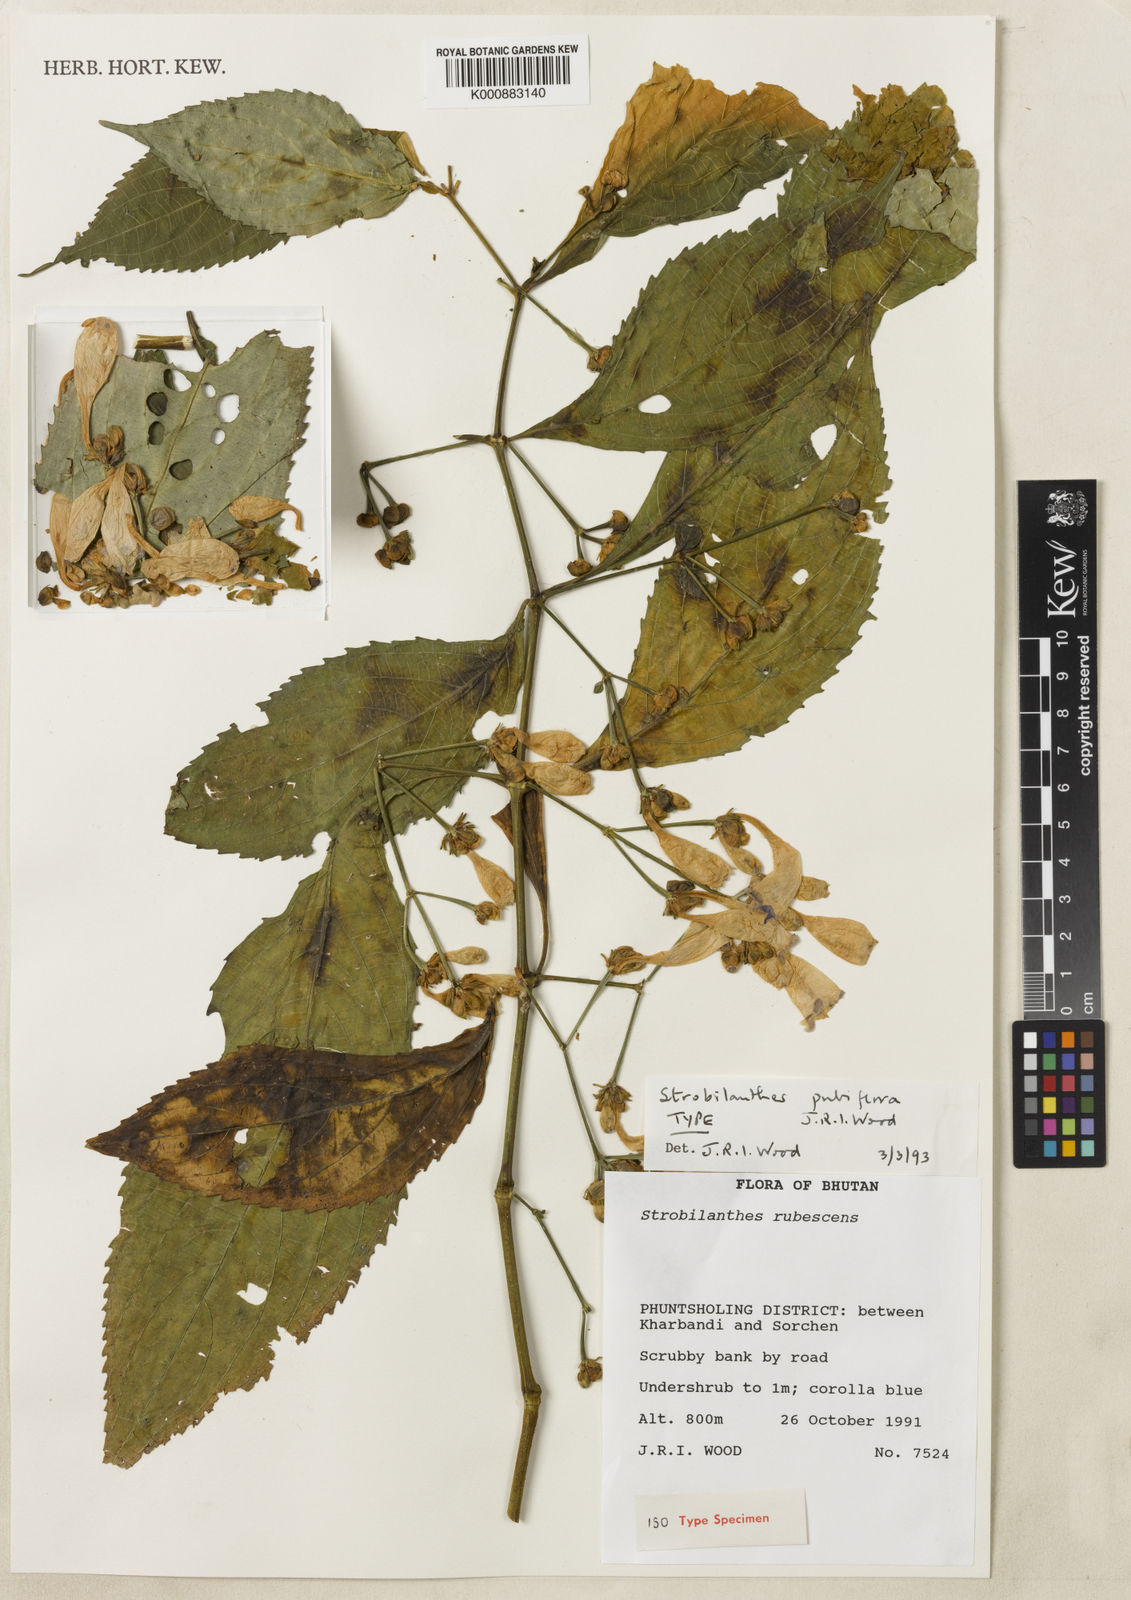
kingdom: Plantae
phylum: Tracheophyta
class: Magnoliopsida
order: Lamiales
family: Acanthaceae
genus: Strobilanthes
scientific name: Strobilanthes pubiflora
